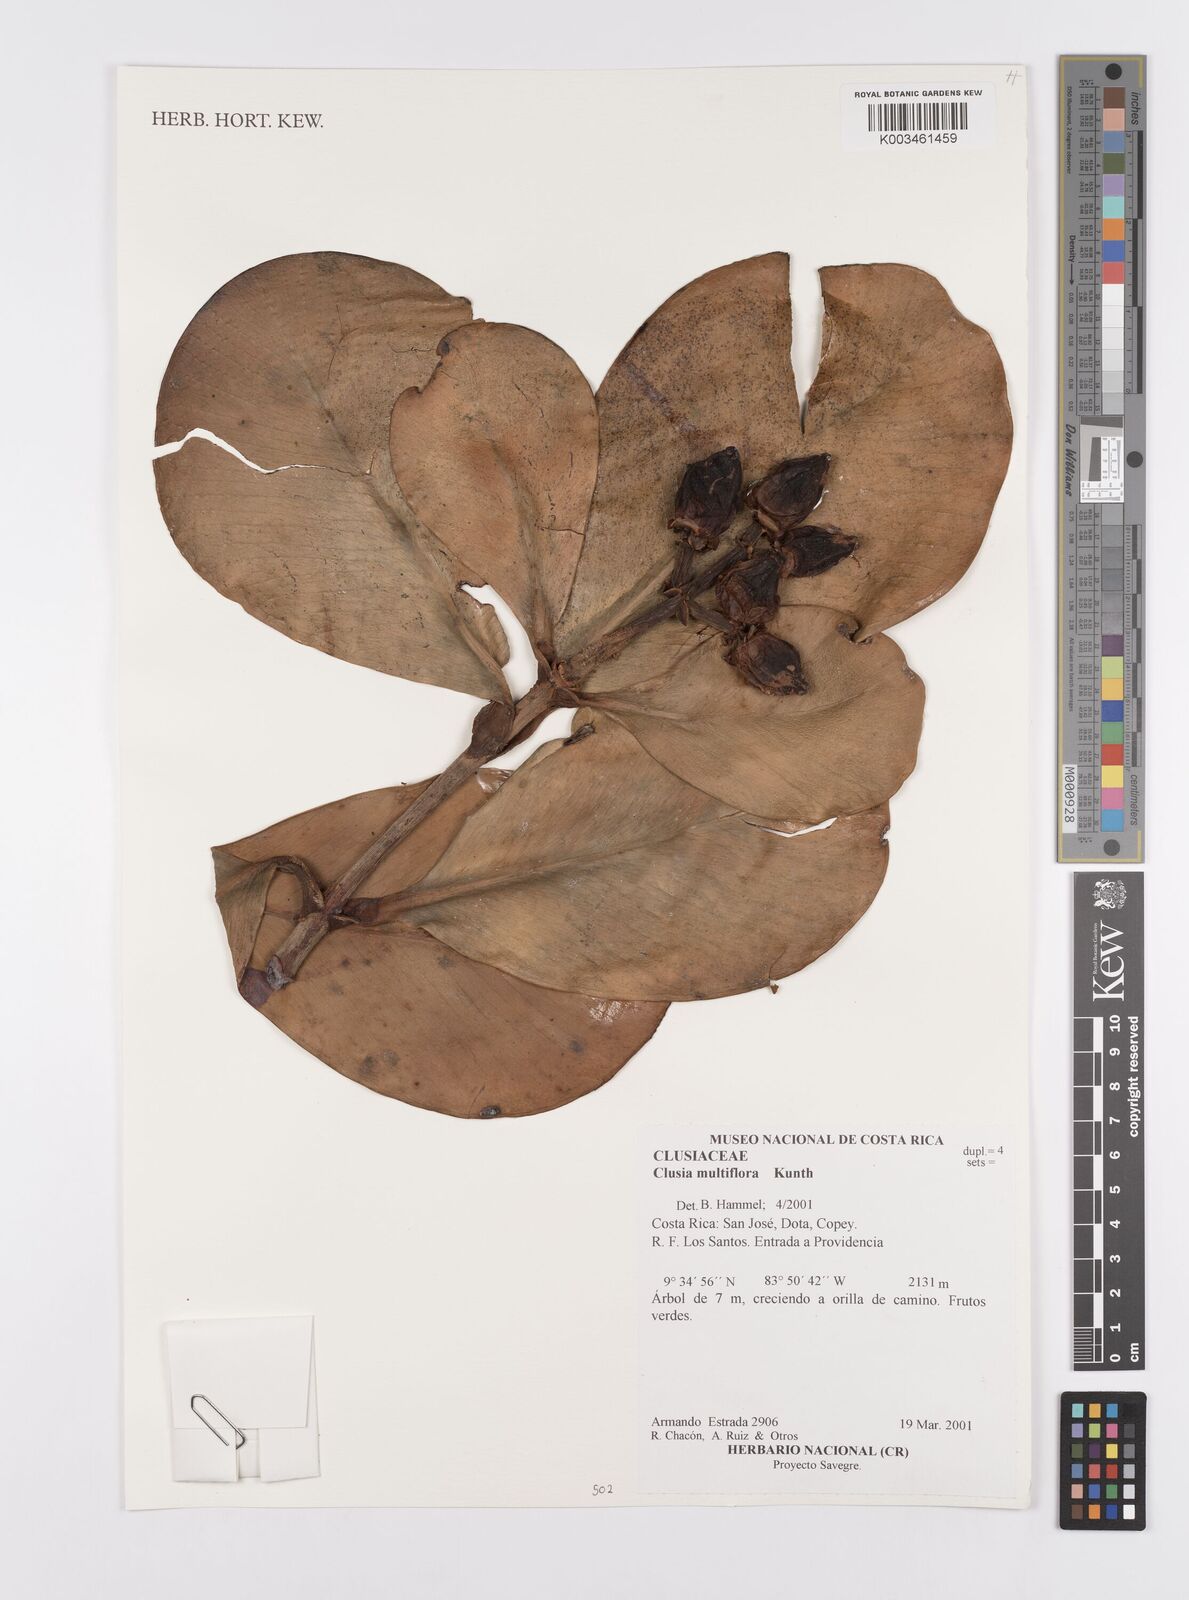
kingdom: Plantae
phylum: Tracheophyta
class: Magnoliopsida
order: Malpighiales
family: Clusiaceae
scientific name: Clusiaceae
